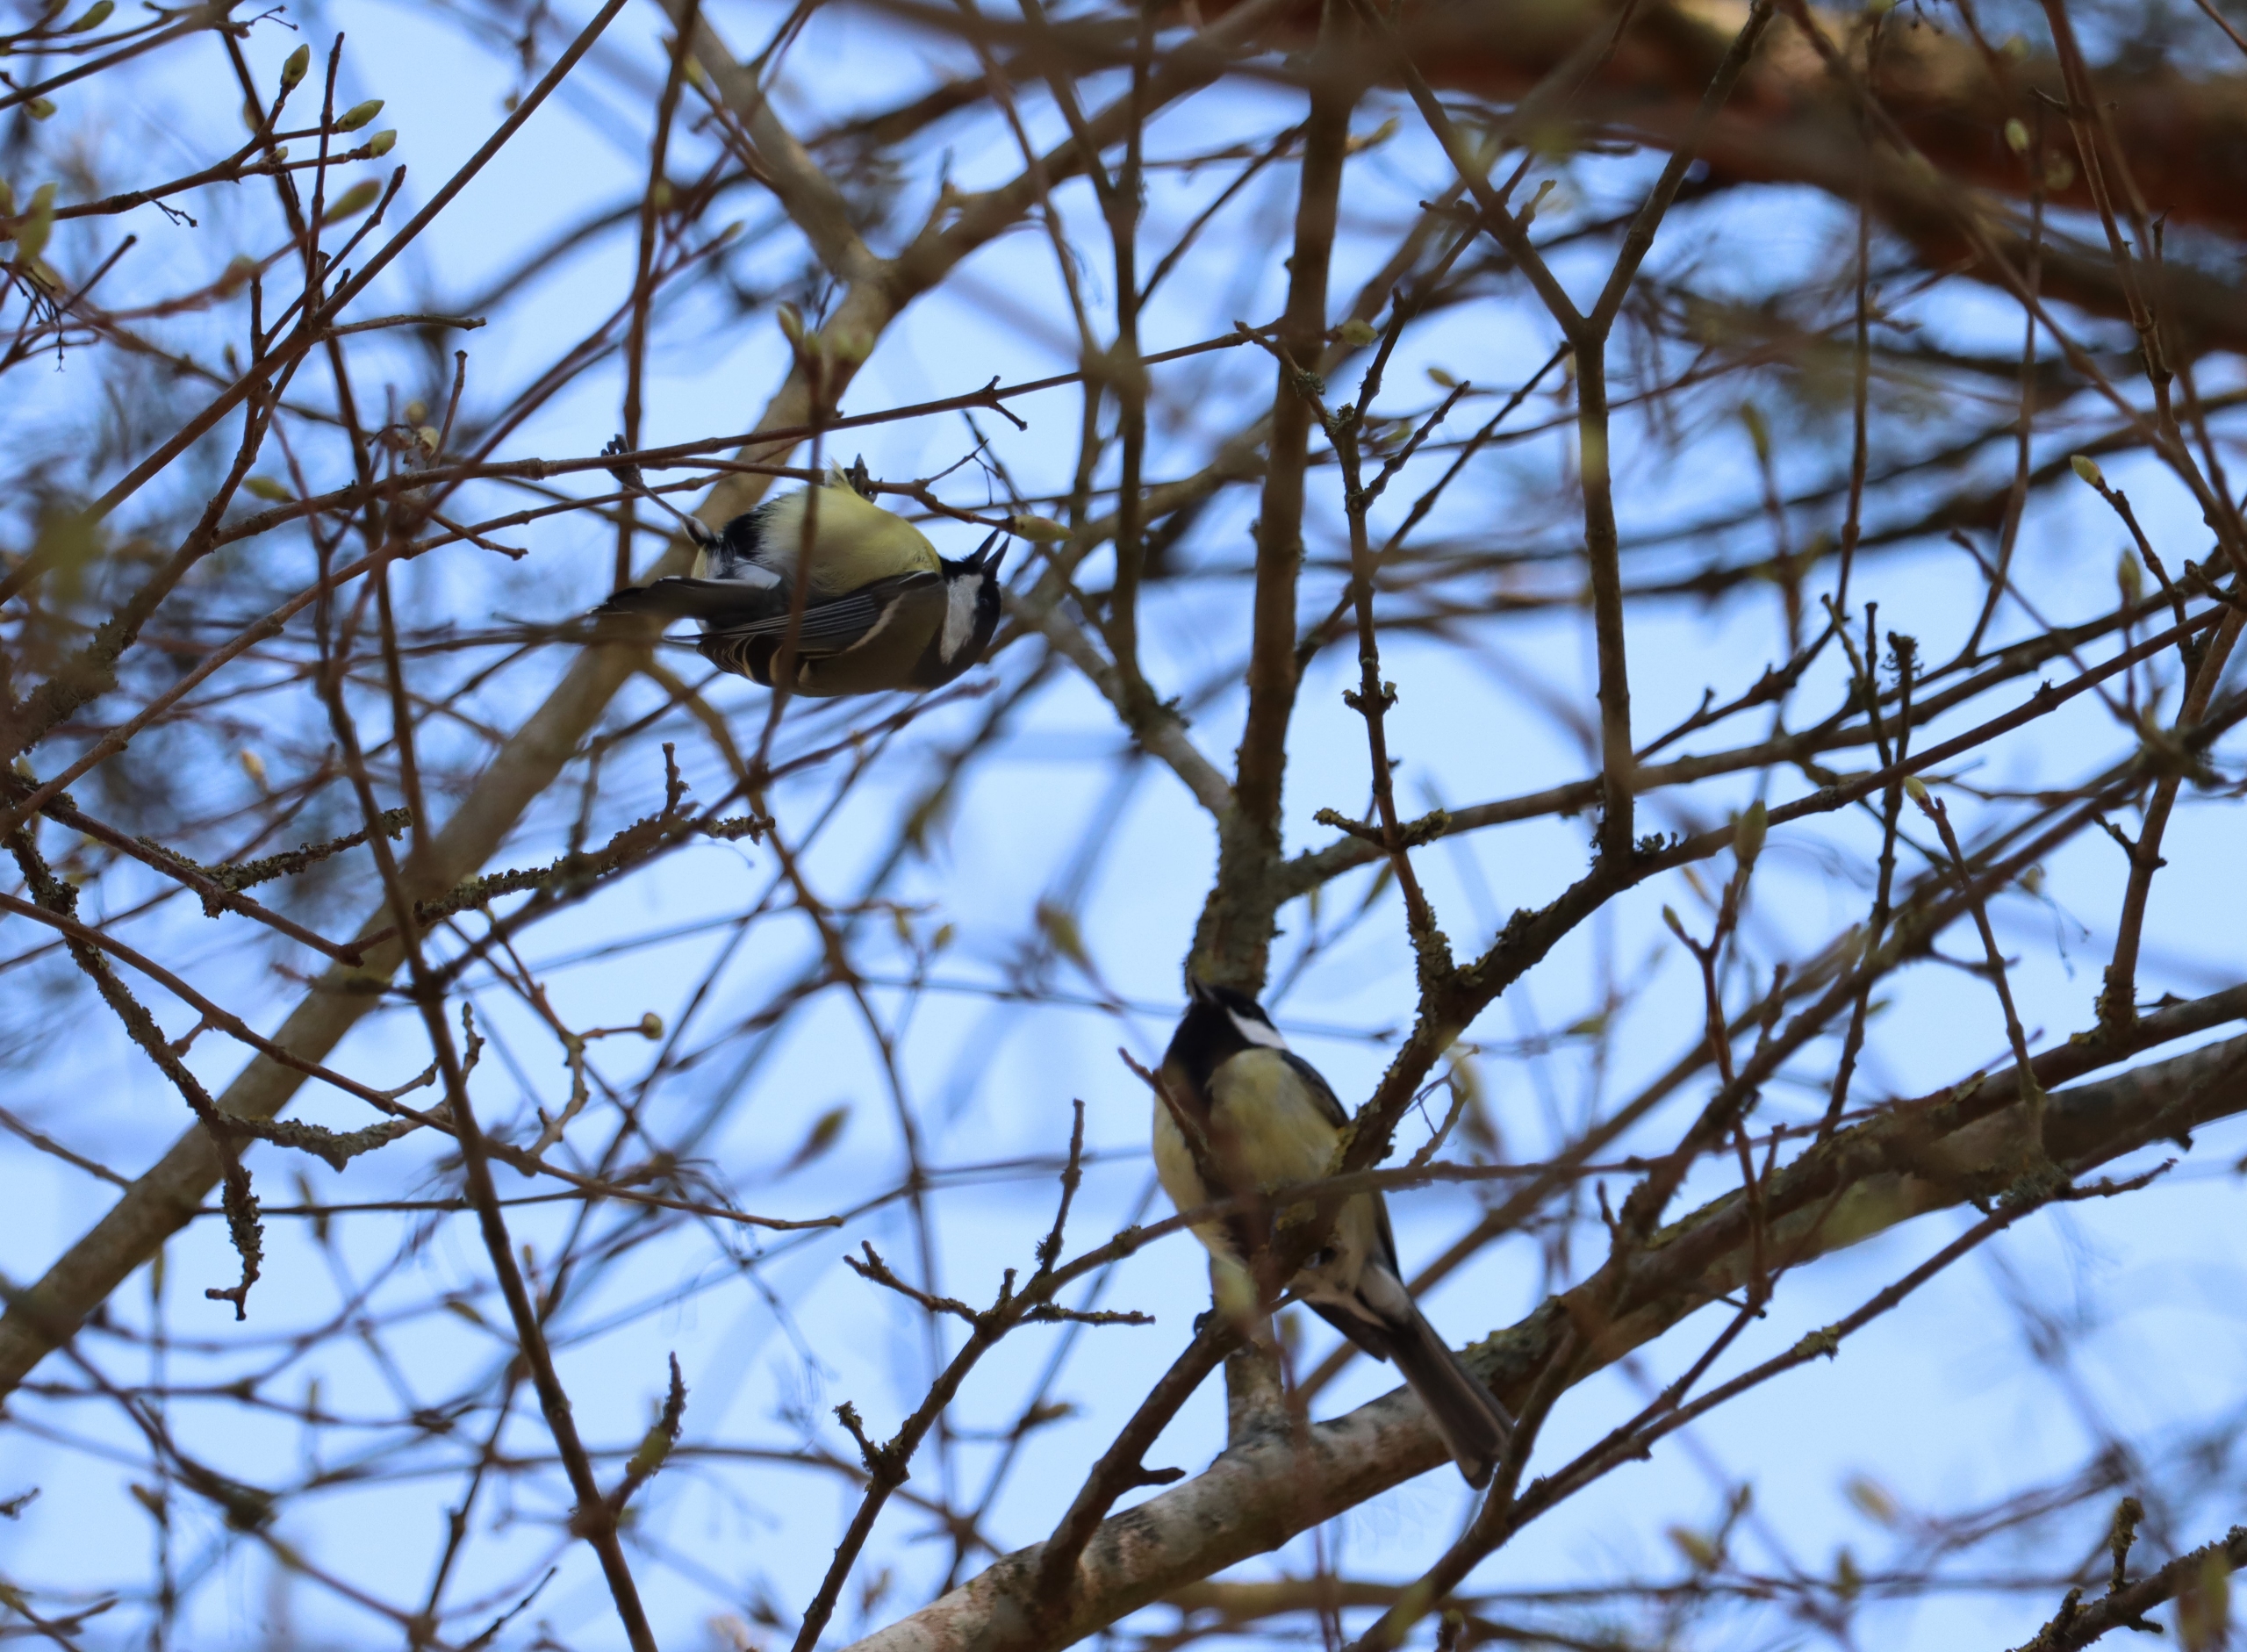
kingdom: Animalia
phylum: Chordata
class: Aves
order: Passeriformes
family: Paridae
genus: Parus
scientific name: Parus major
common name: Musvit
